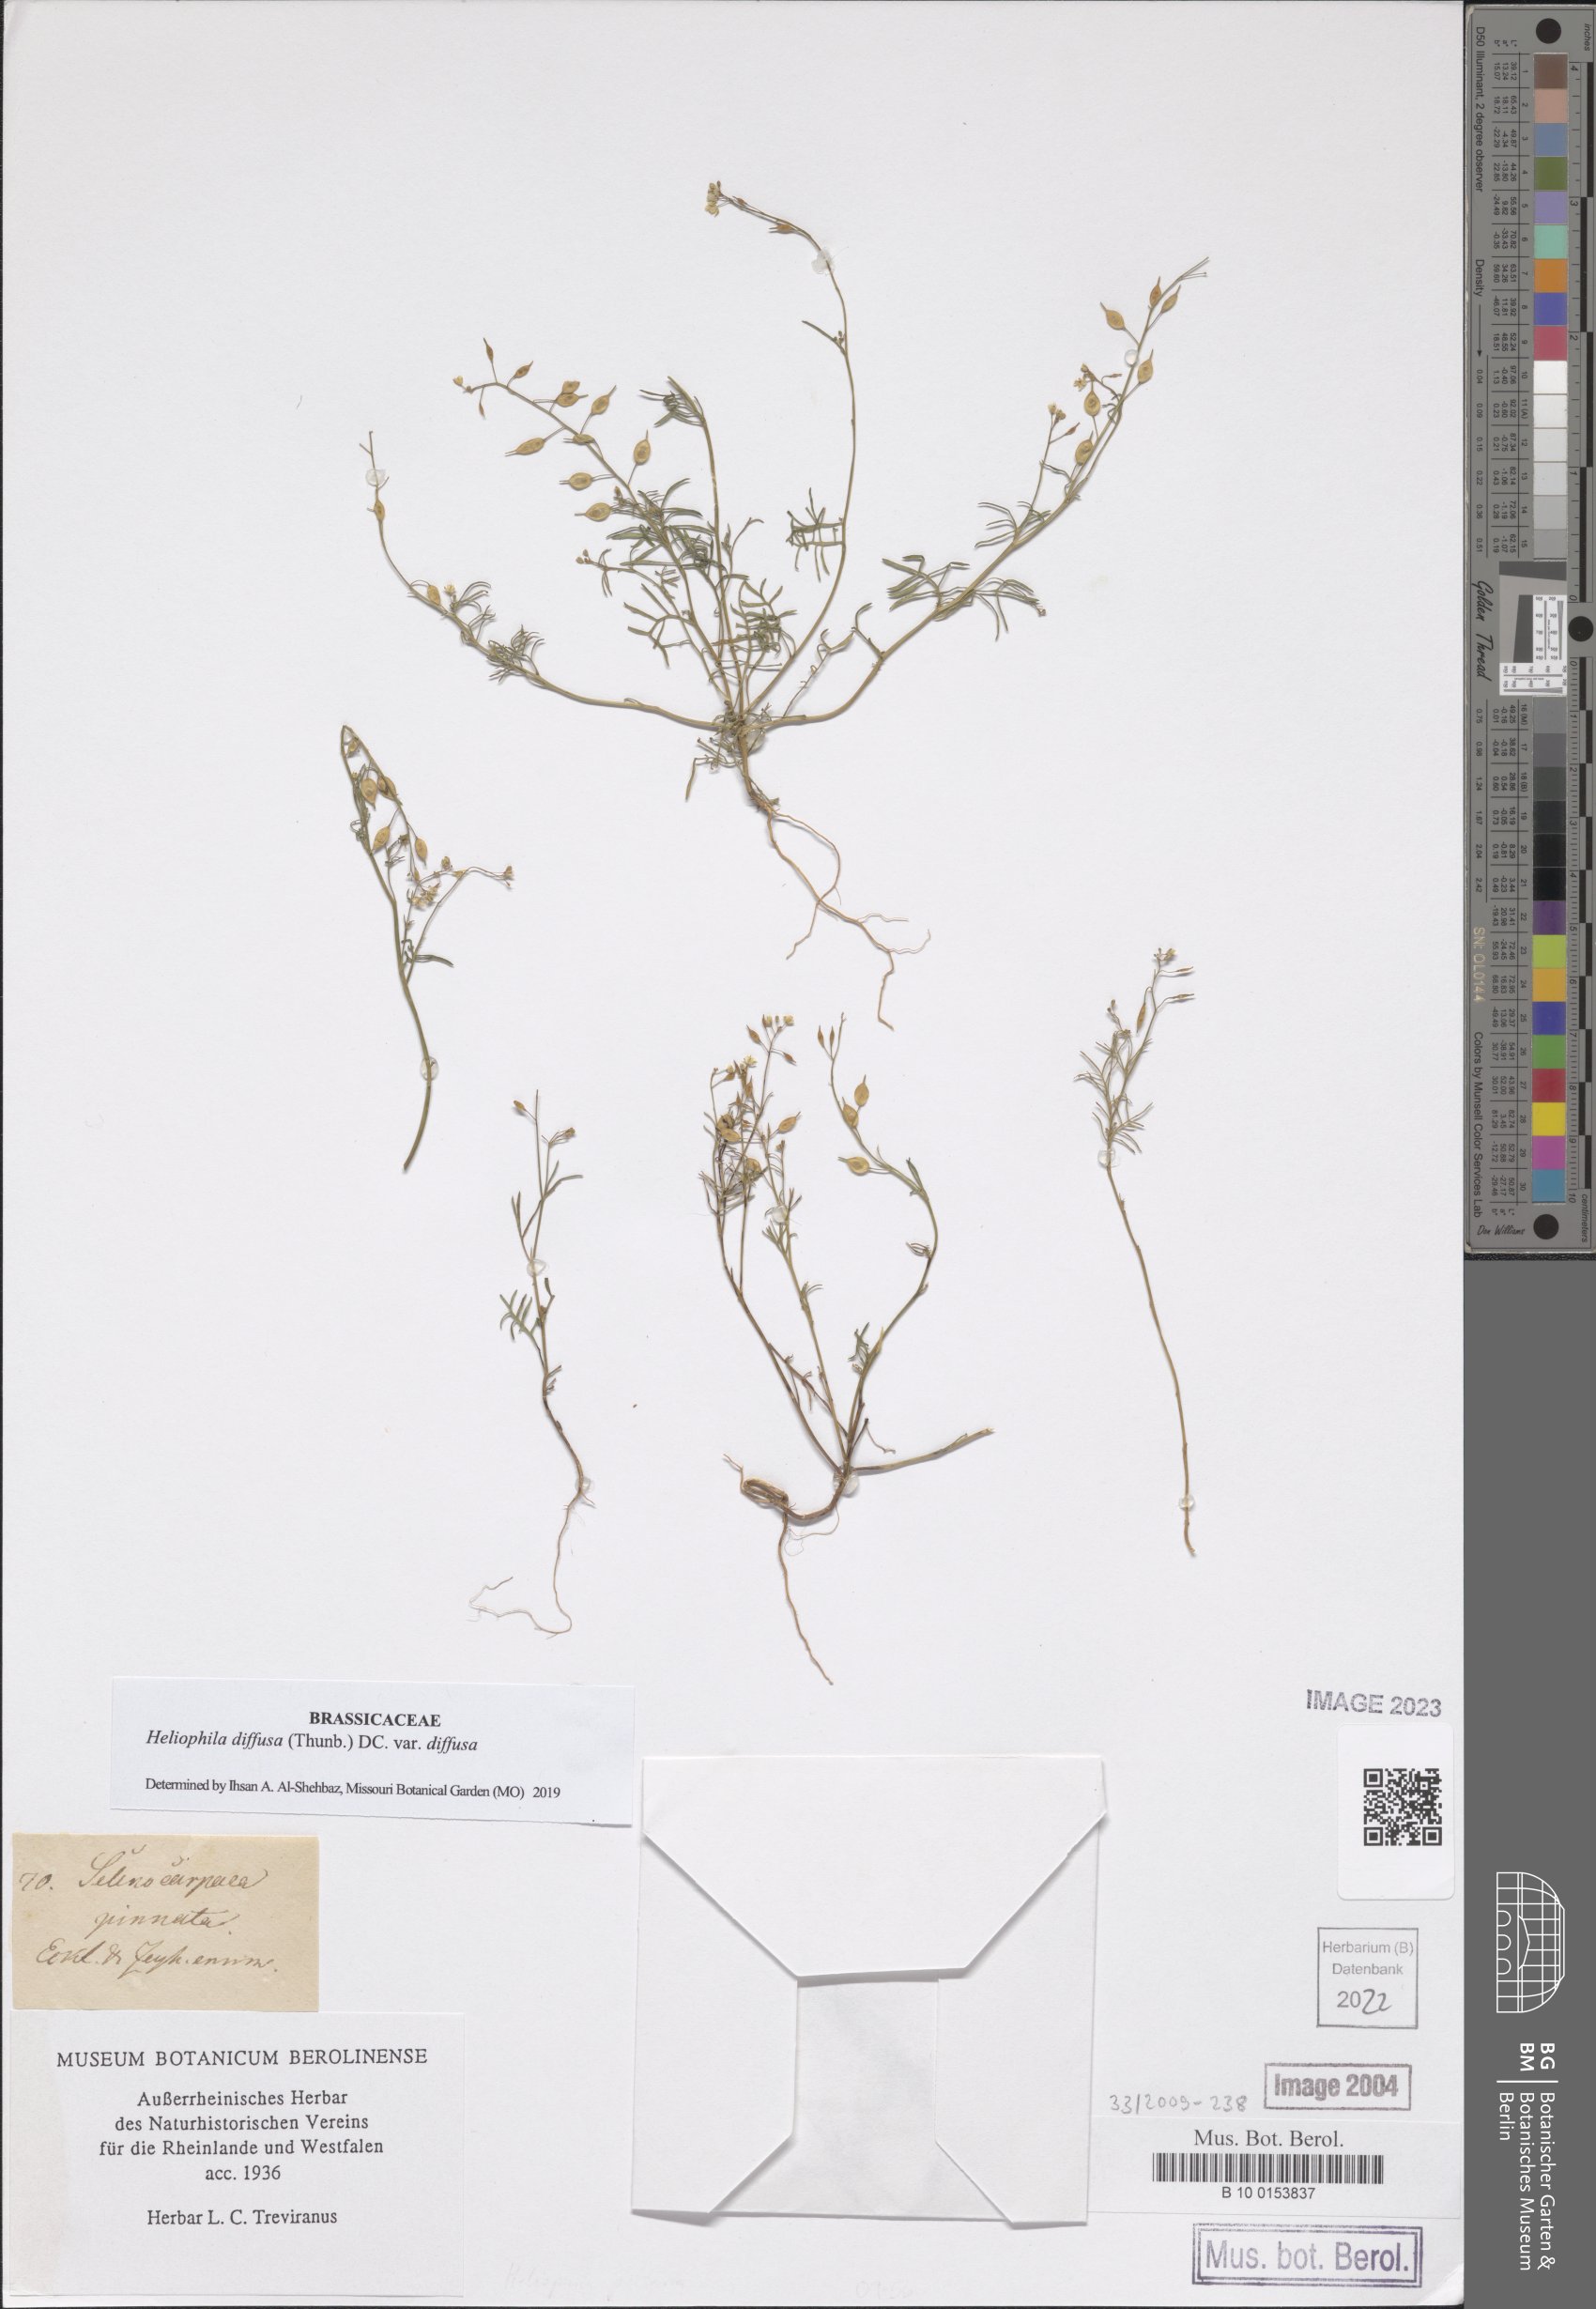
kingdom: Plantae
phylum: Tracheophyta
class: Magnoliopsida
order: Brassicales
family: Brassicaceae
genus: Heliophila
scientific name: Heliophila diffusa
